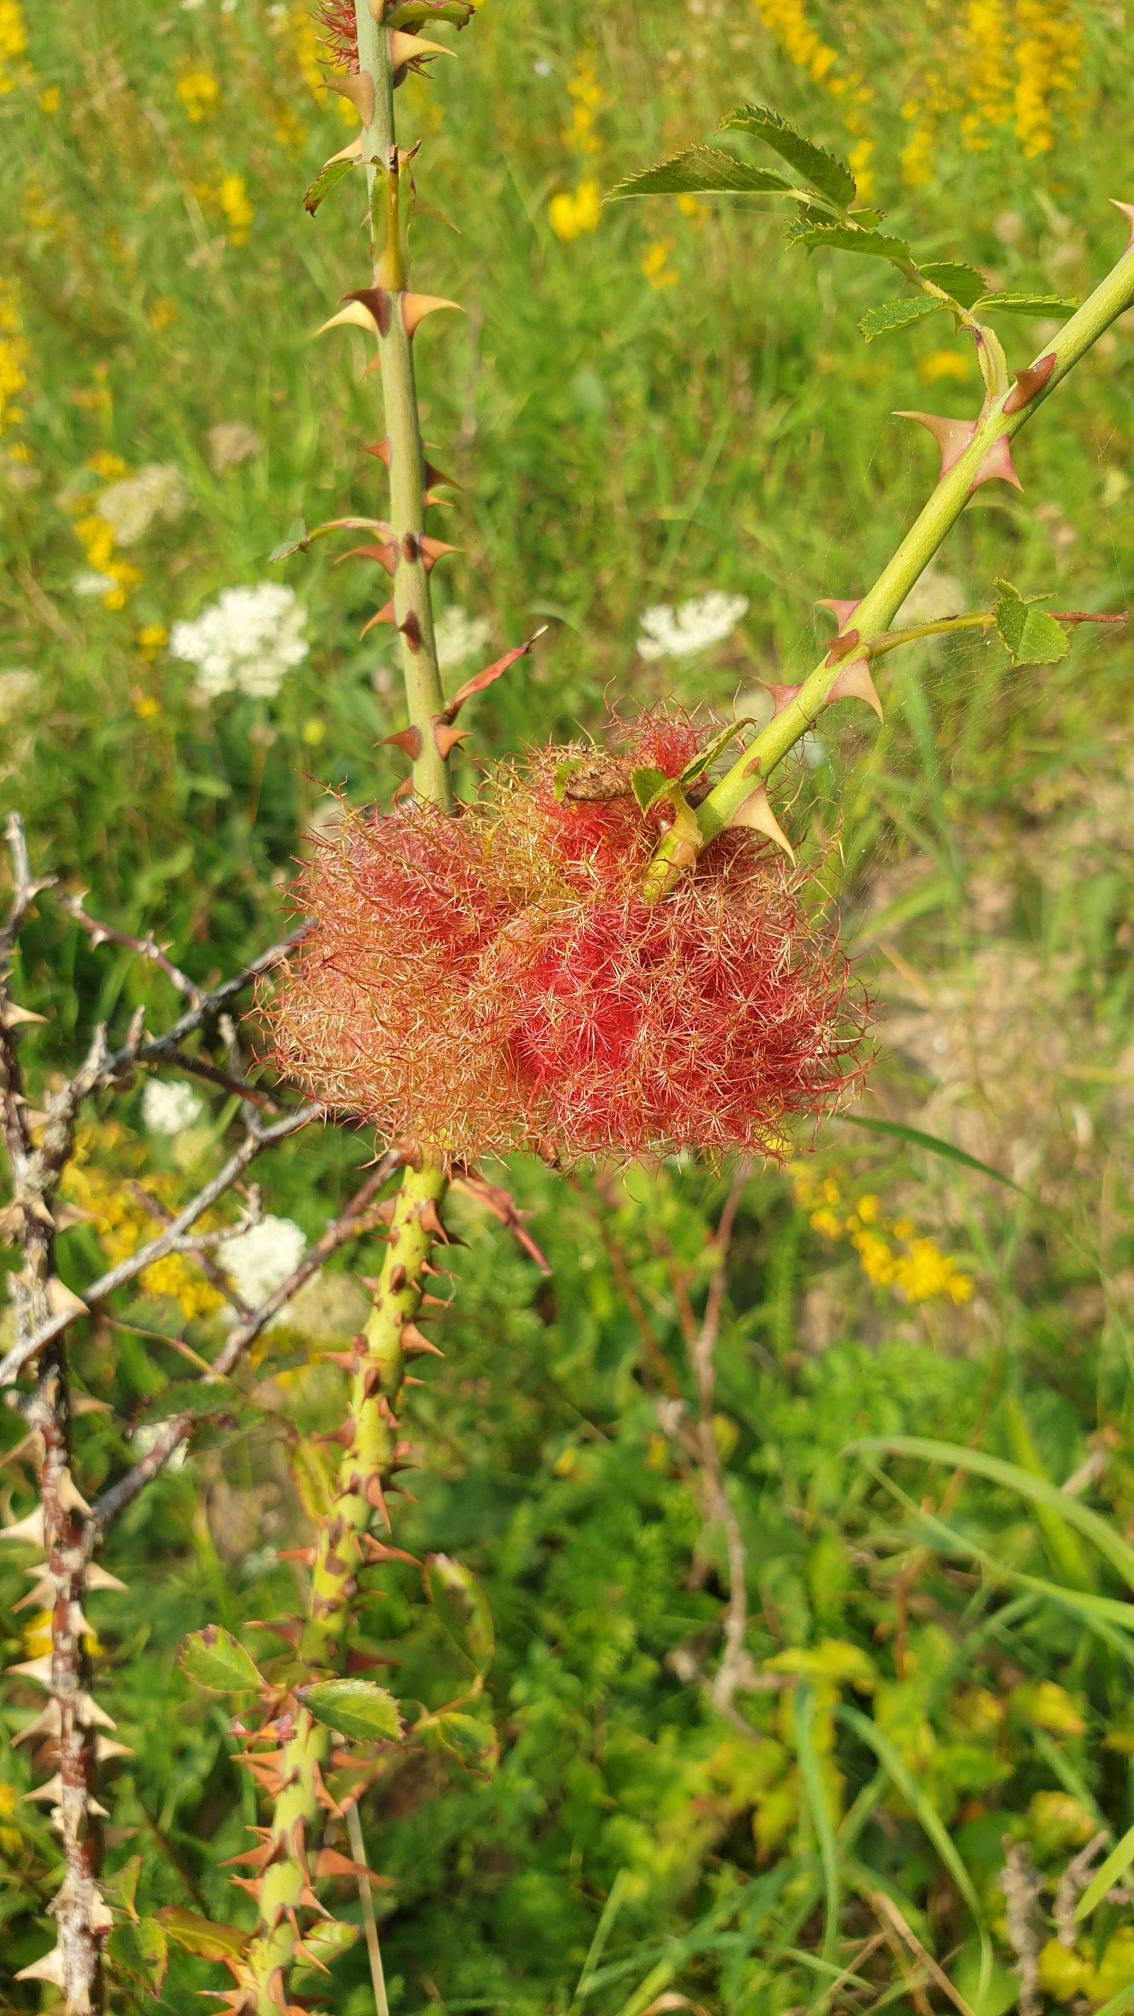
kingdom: Animalia
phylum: Arthropoda
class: Insecta
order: Hymenoptera
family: Cynipidae
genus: Diplolepis
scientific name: Diplolepis rosae
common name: Bedeguargalhveps
